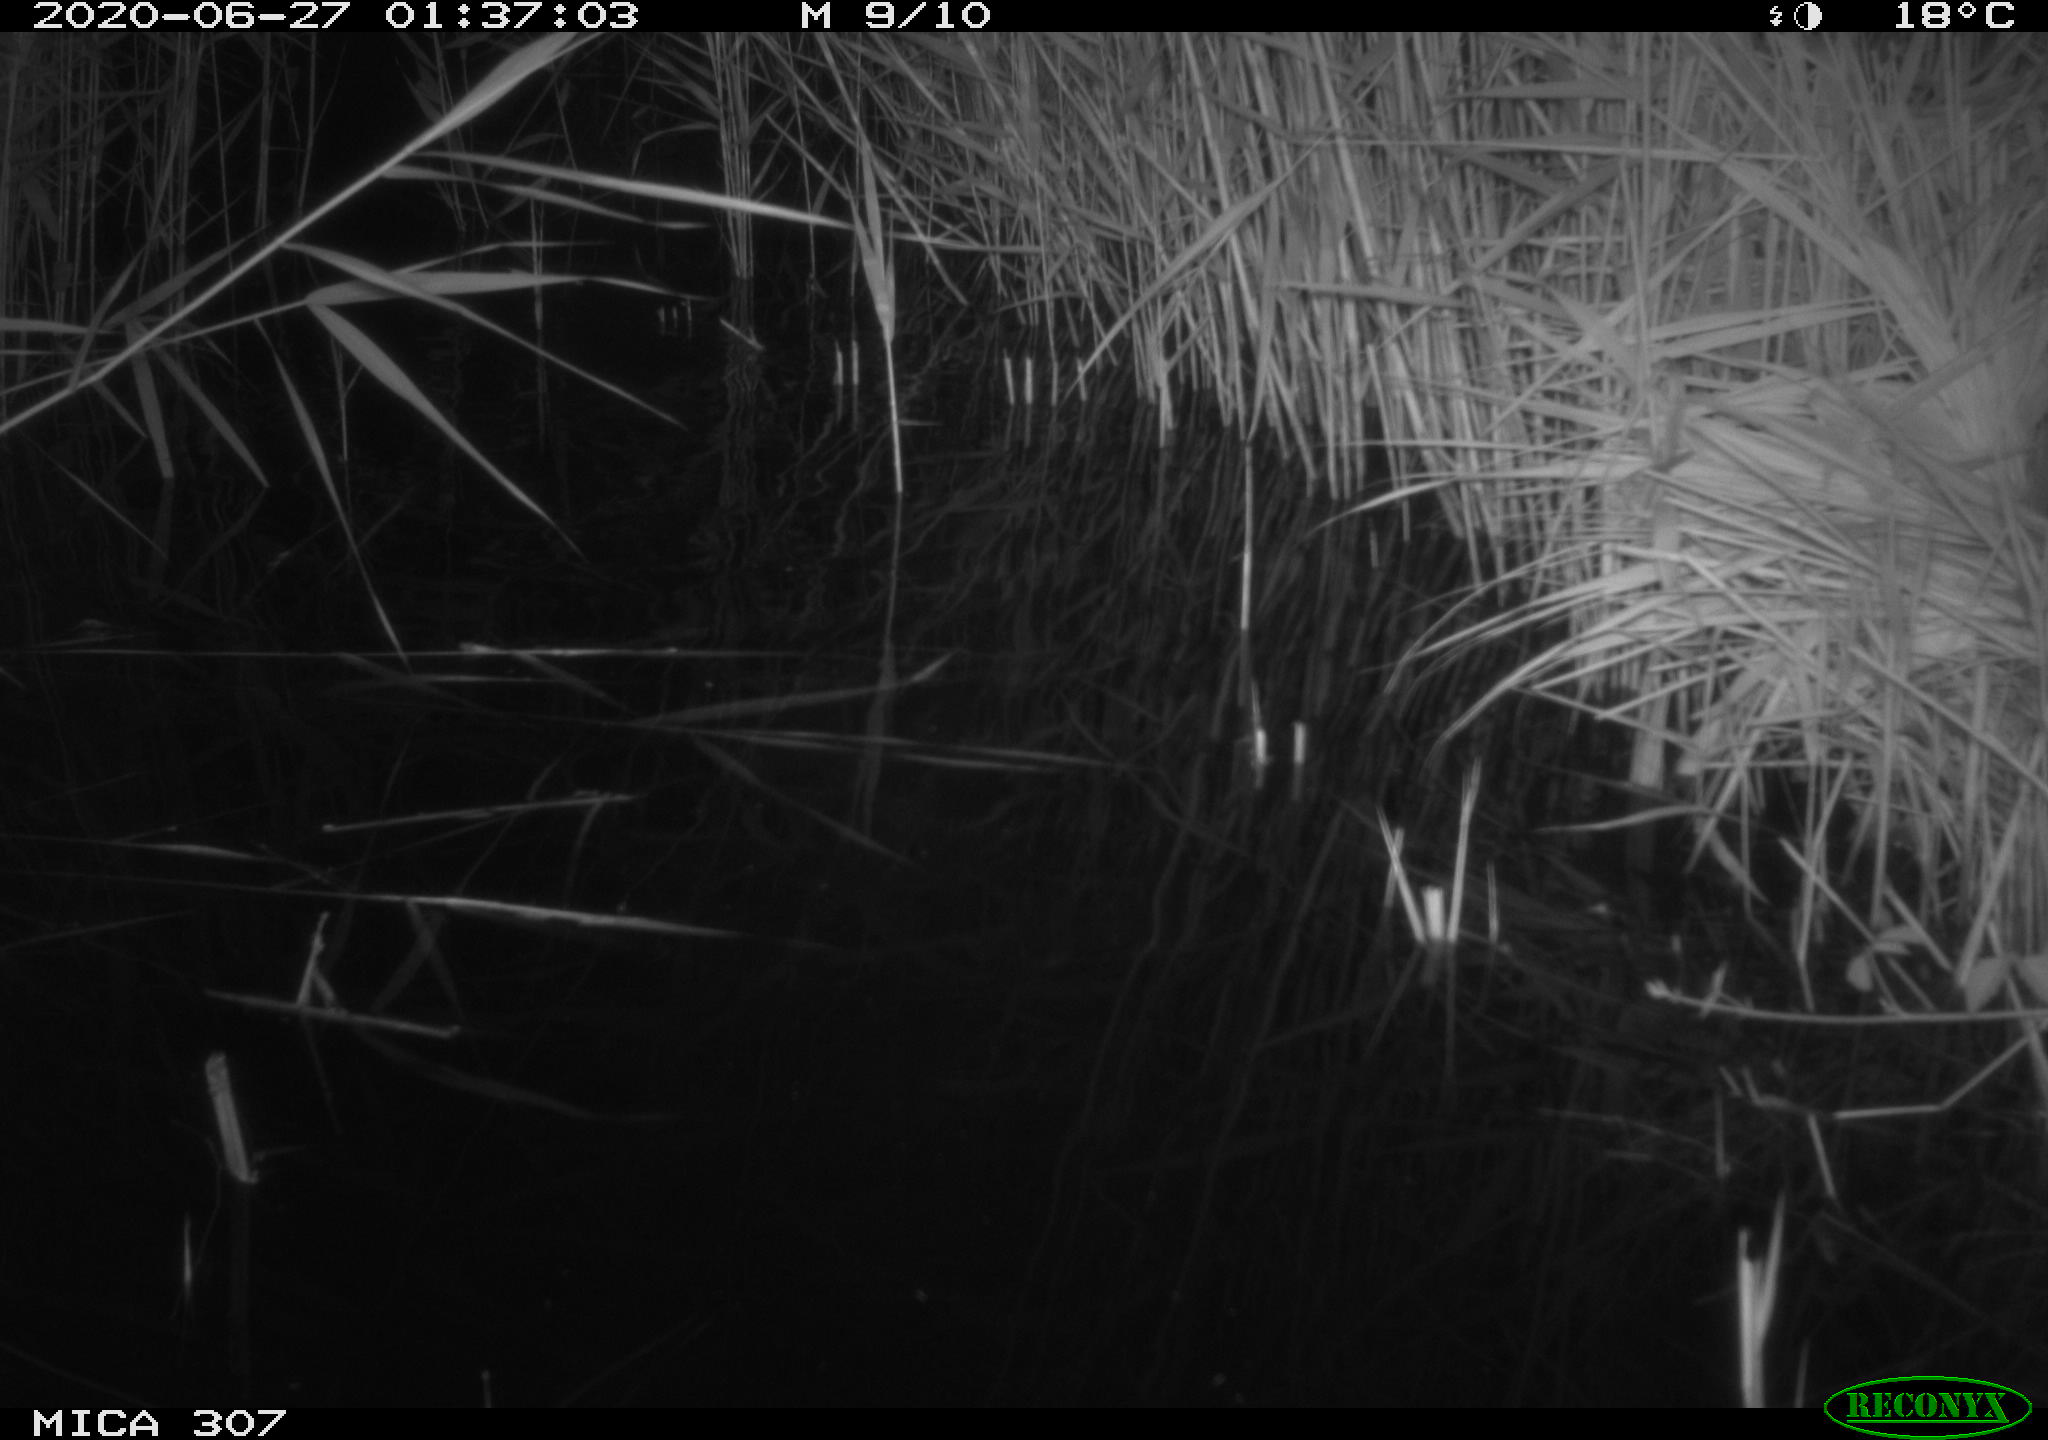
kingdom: Animalia
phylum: Chordata
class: Mammalia
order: Rodentia
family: Muridae
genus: Rattus
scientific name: Rattus norvegicus
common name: Brown rat
